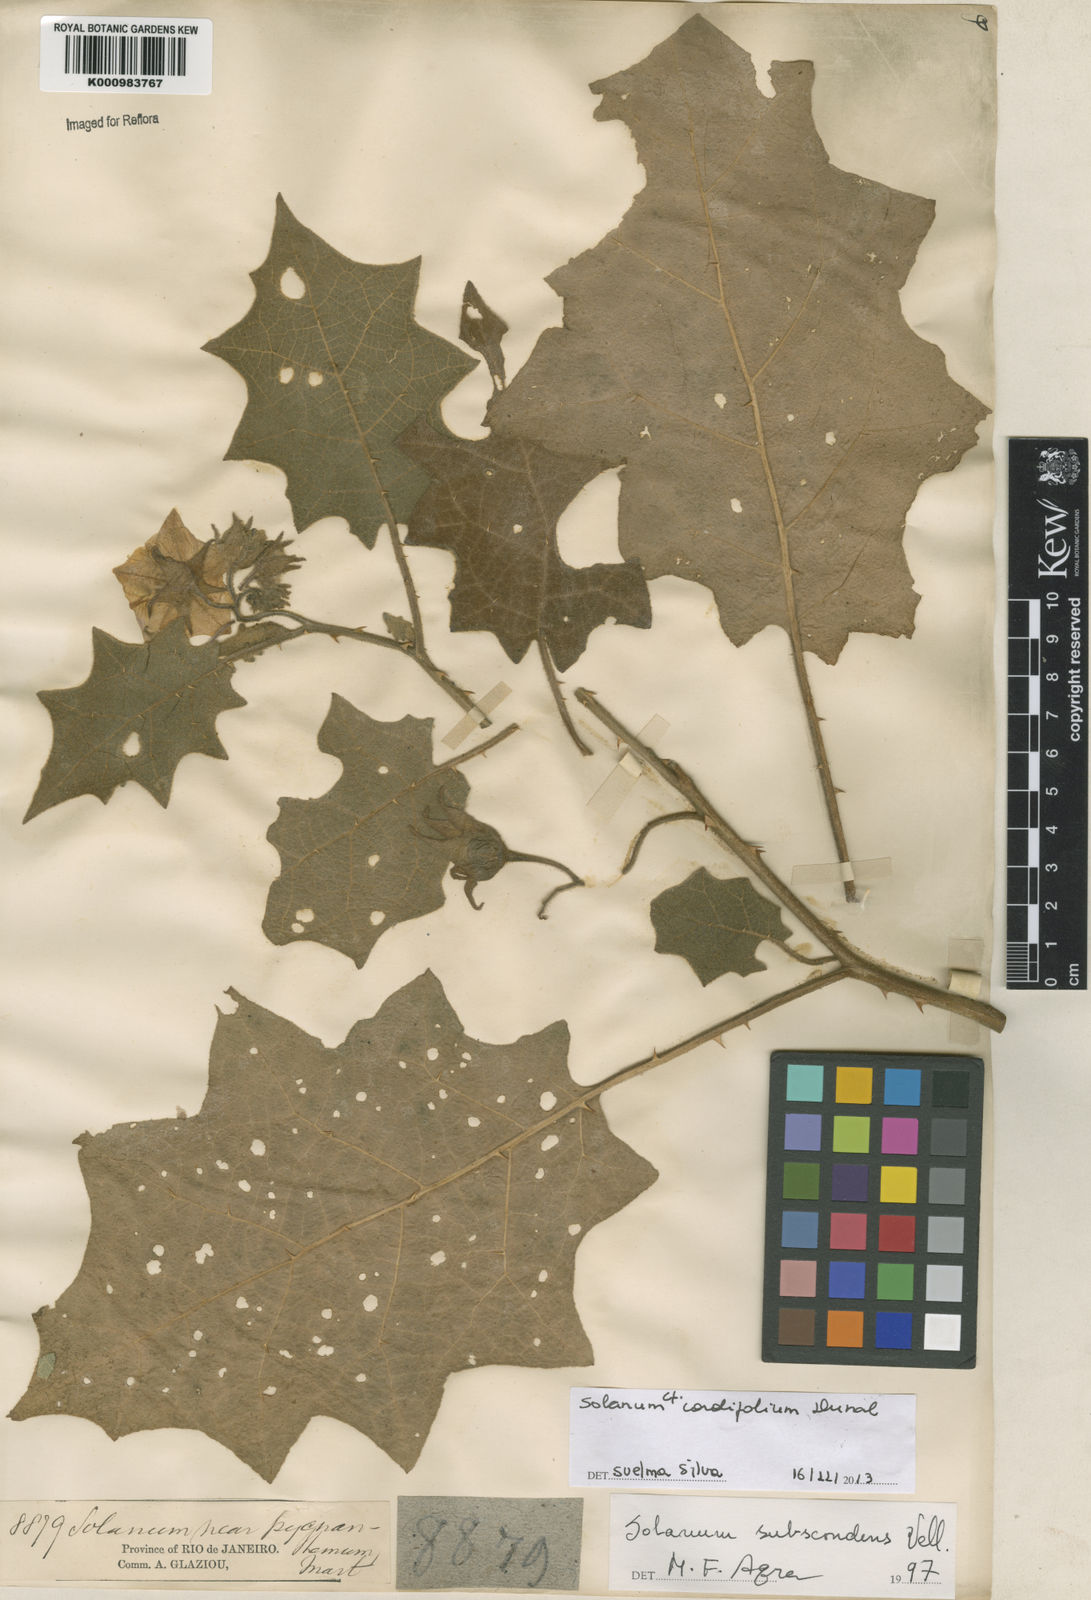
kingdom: Plantae
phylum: Tracheophyta
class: Magnoliopsida
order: Solanales
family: Solanaceae
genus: Solanum
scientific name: Solanum cordifolium
